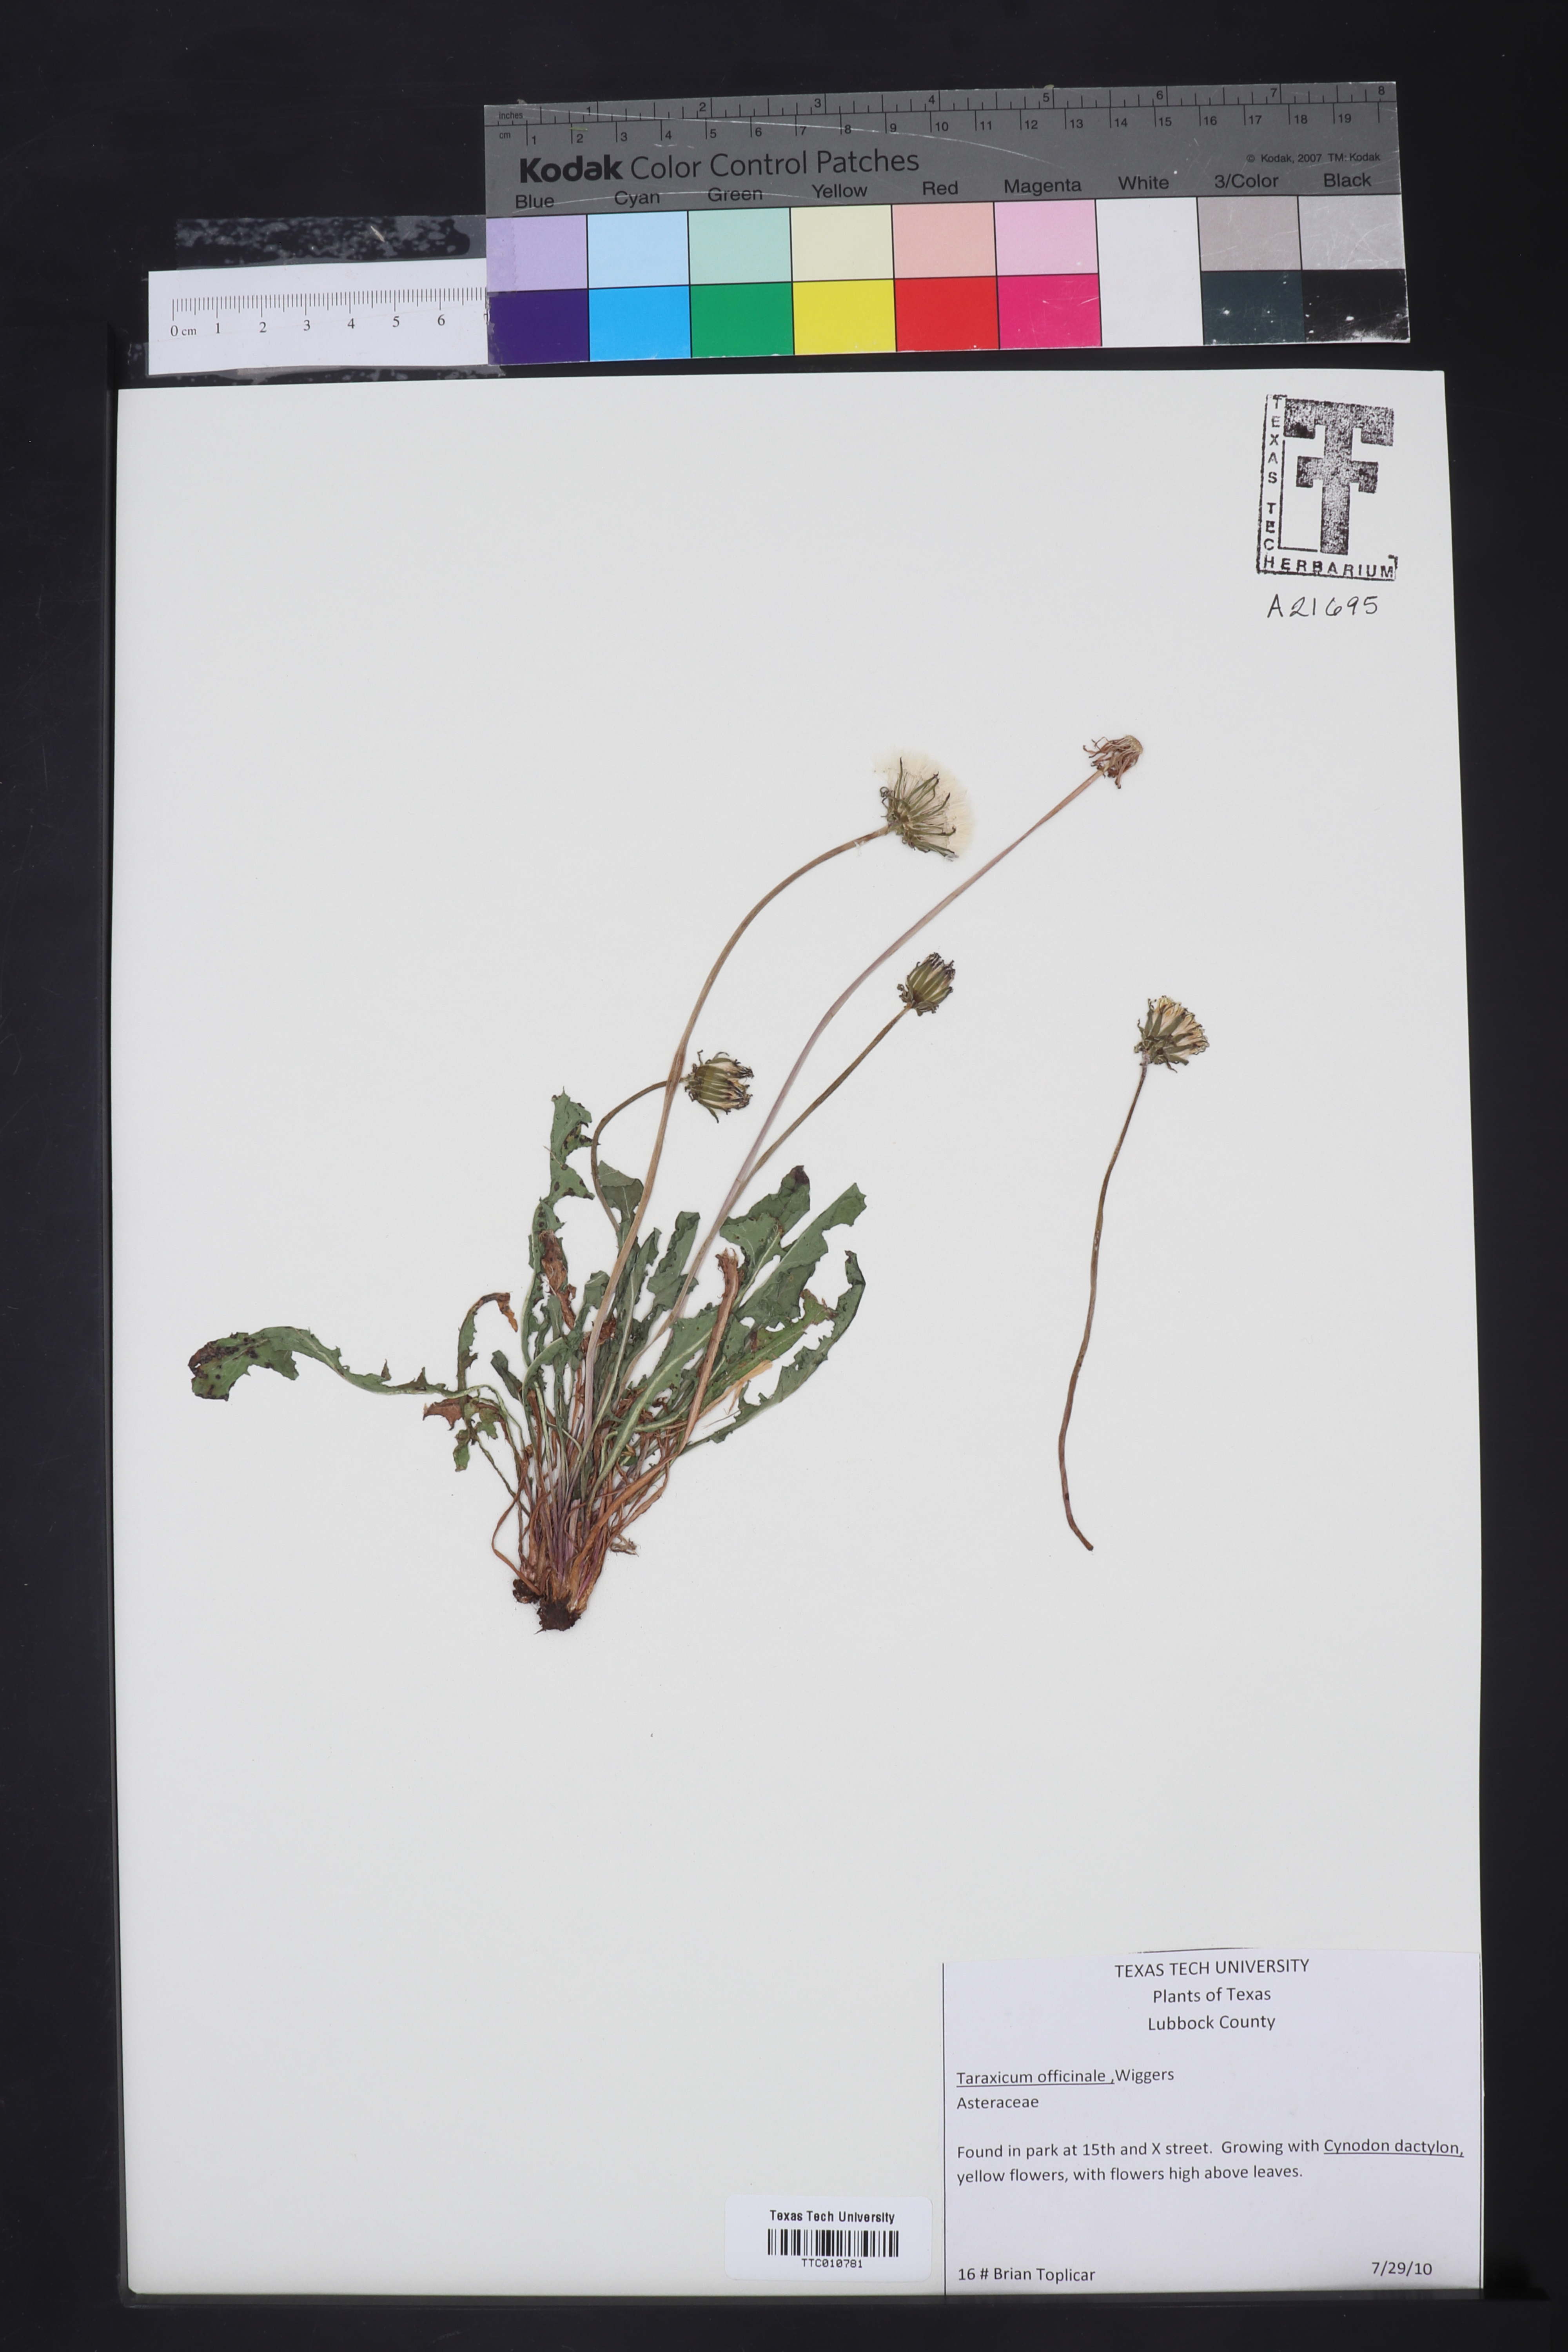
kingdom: Plantae
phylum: Tracheophyta
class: Magnoliopsida
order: Asterales
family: Asteraceae
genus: Taraxacum
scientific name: Taraxacum officinale
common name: Common dandelion
